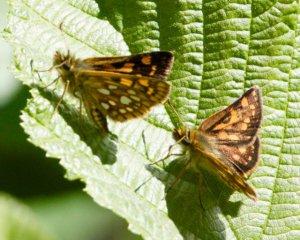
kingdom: Animalia
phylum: Arthropoda
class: Insecta
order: Lepidoptera
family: Hesperiidae
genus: Carterocephalus
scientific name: Carterocephalus palaemon
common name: Chequered Skipper
